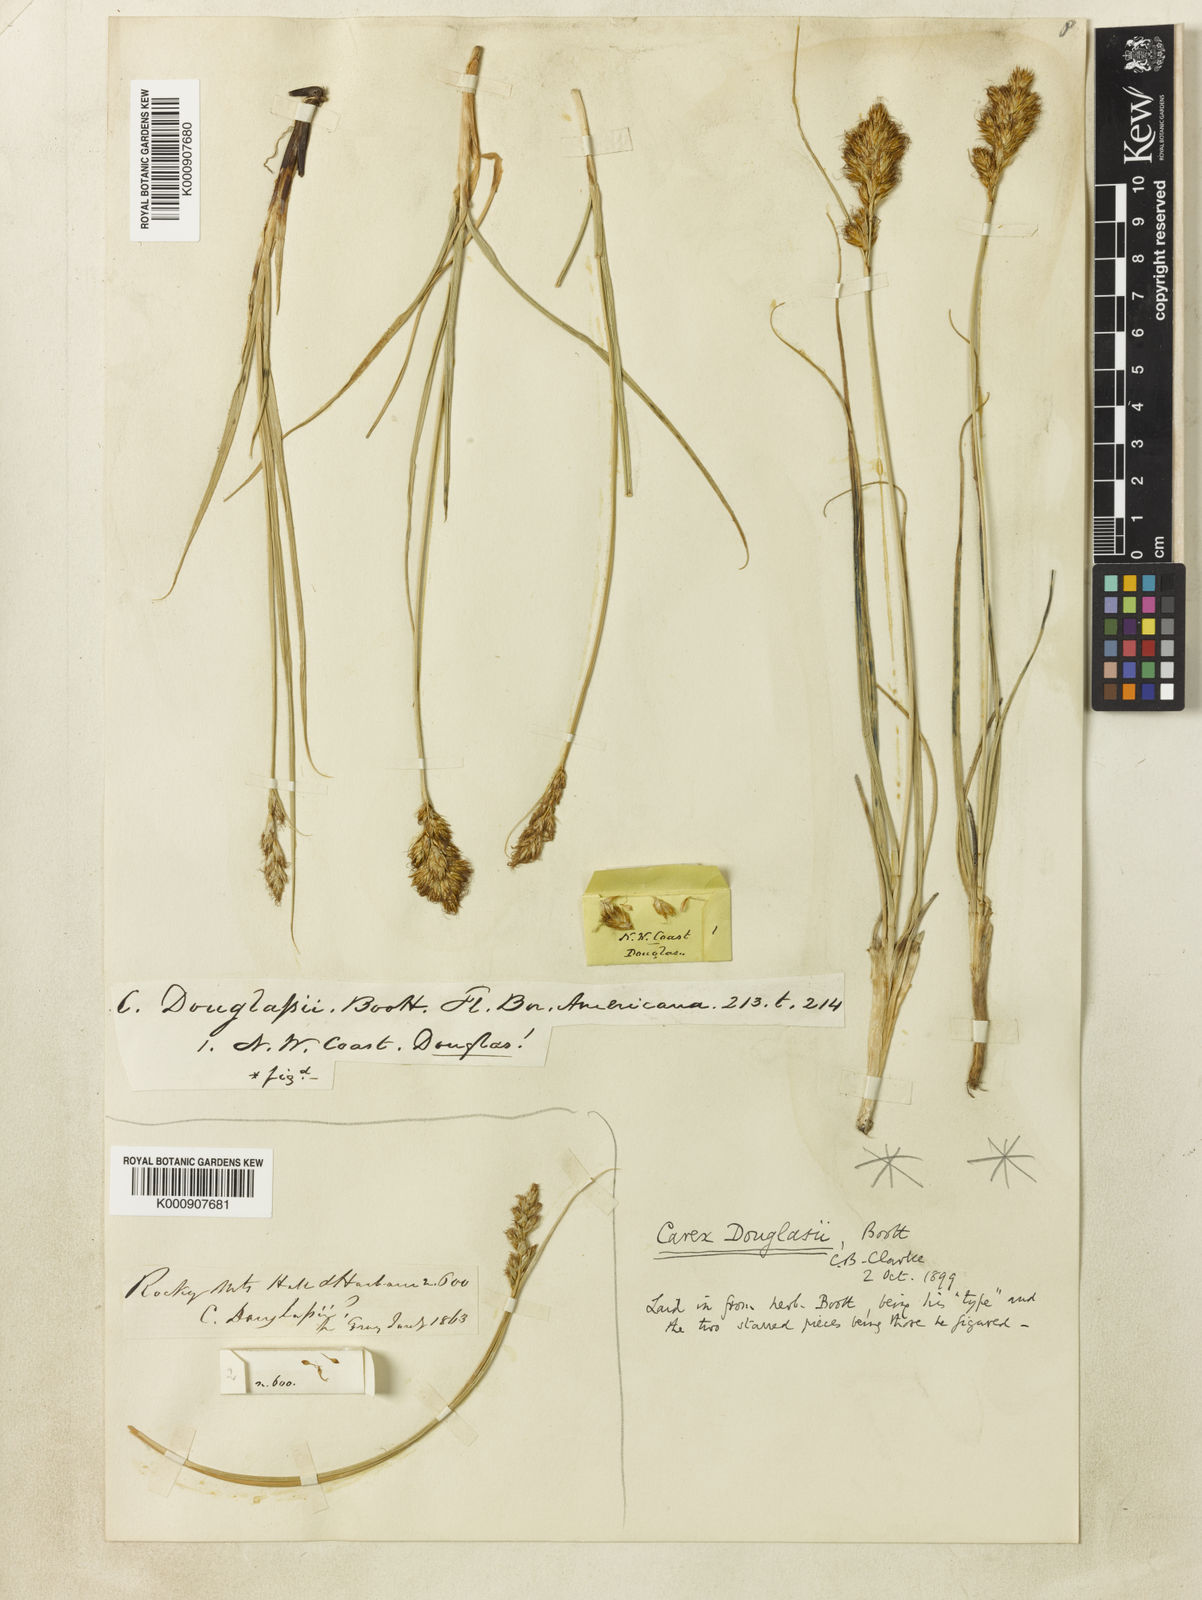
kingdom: Plantae
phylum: Tracheophyta
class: Liliopsida
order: Poales
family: Cyperaceae
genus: Carex
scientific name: Carex douglasii
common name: Douglas' sedge
